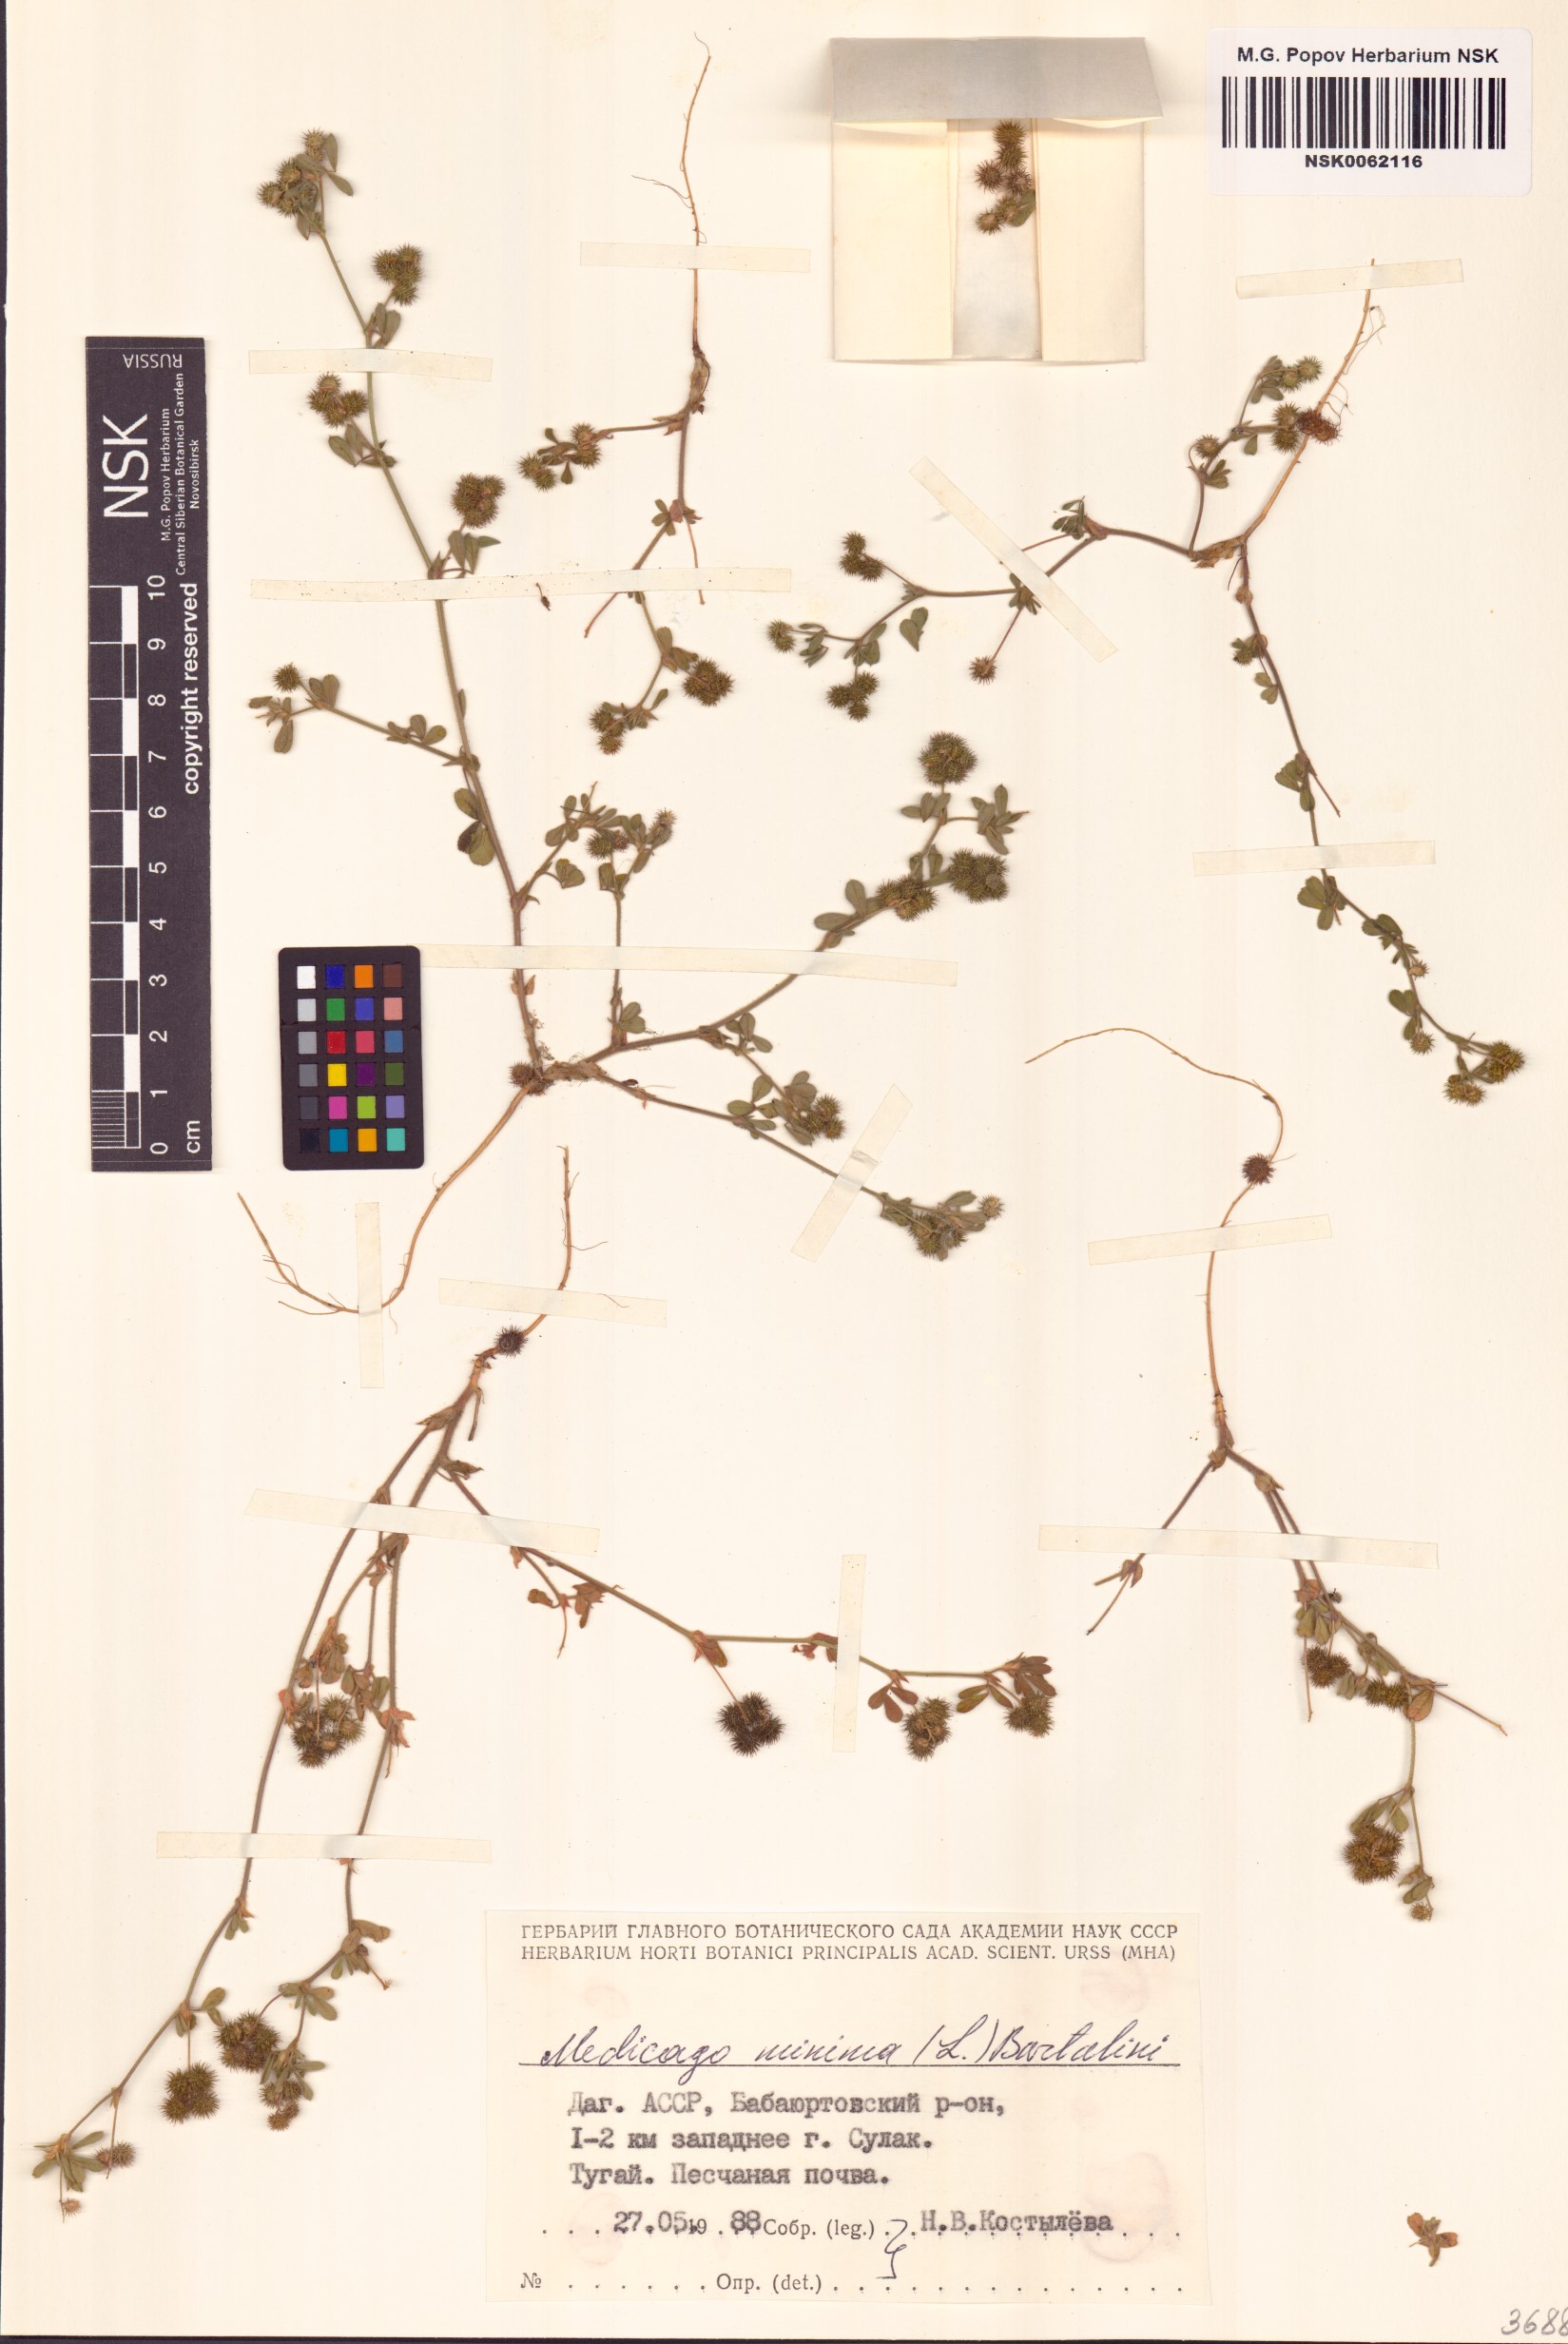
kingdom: Plantae
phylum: Tracheophyta
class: Magnoliopsida
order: Fabales
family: Fabaceae
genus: Medicago
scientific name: Medicago minima
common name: Little bur-clover
